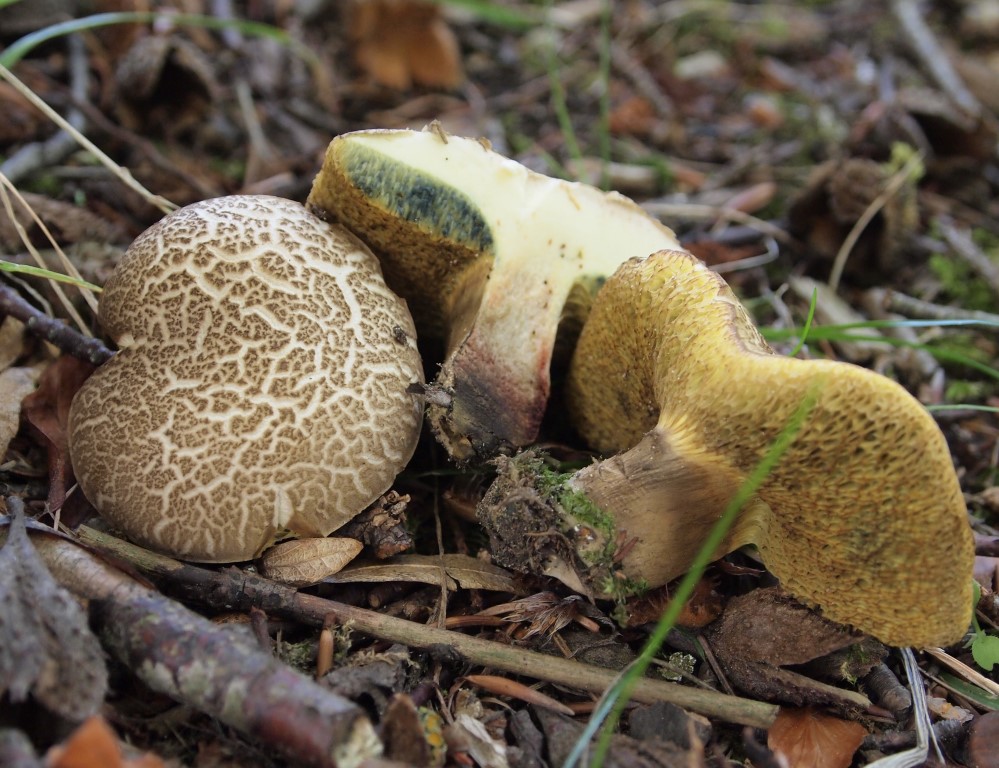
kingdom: Fungi
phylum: Basidiomycota
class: Agaricomycetes
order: Boletales
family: Boletaceae
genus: Xerocomellus
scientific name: Xerocomellus porosporus
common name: hvidsprukken rørhat
